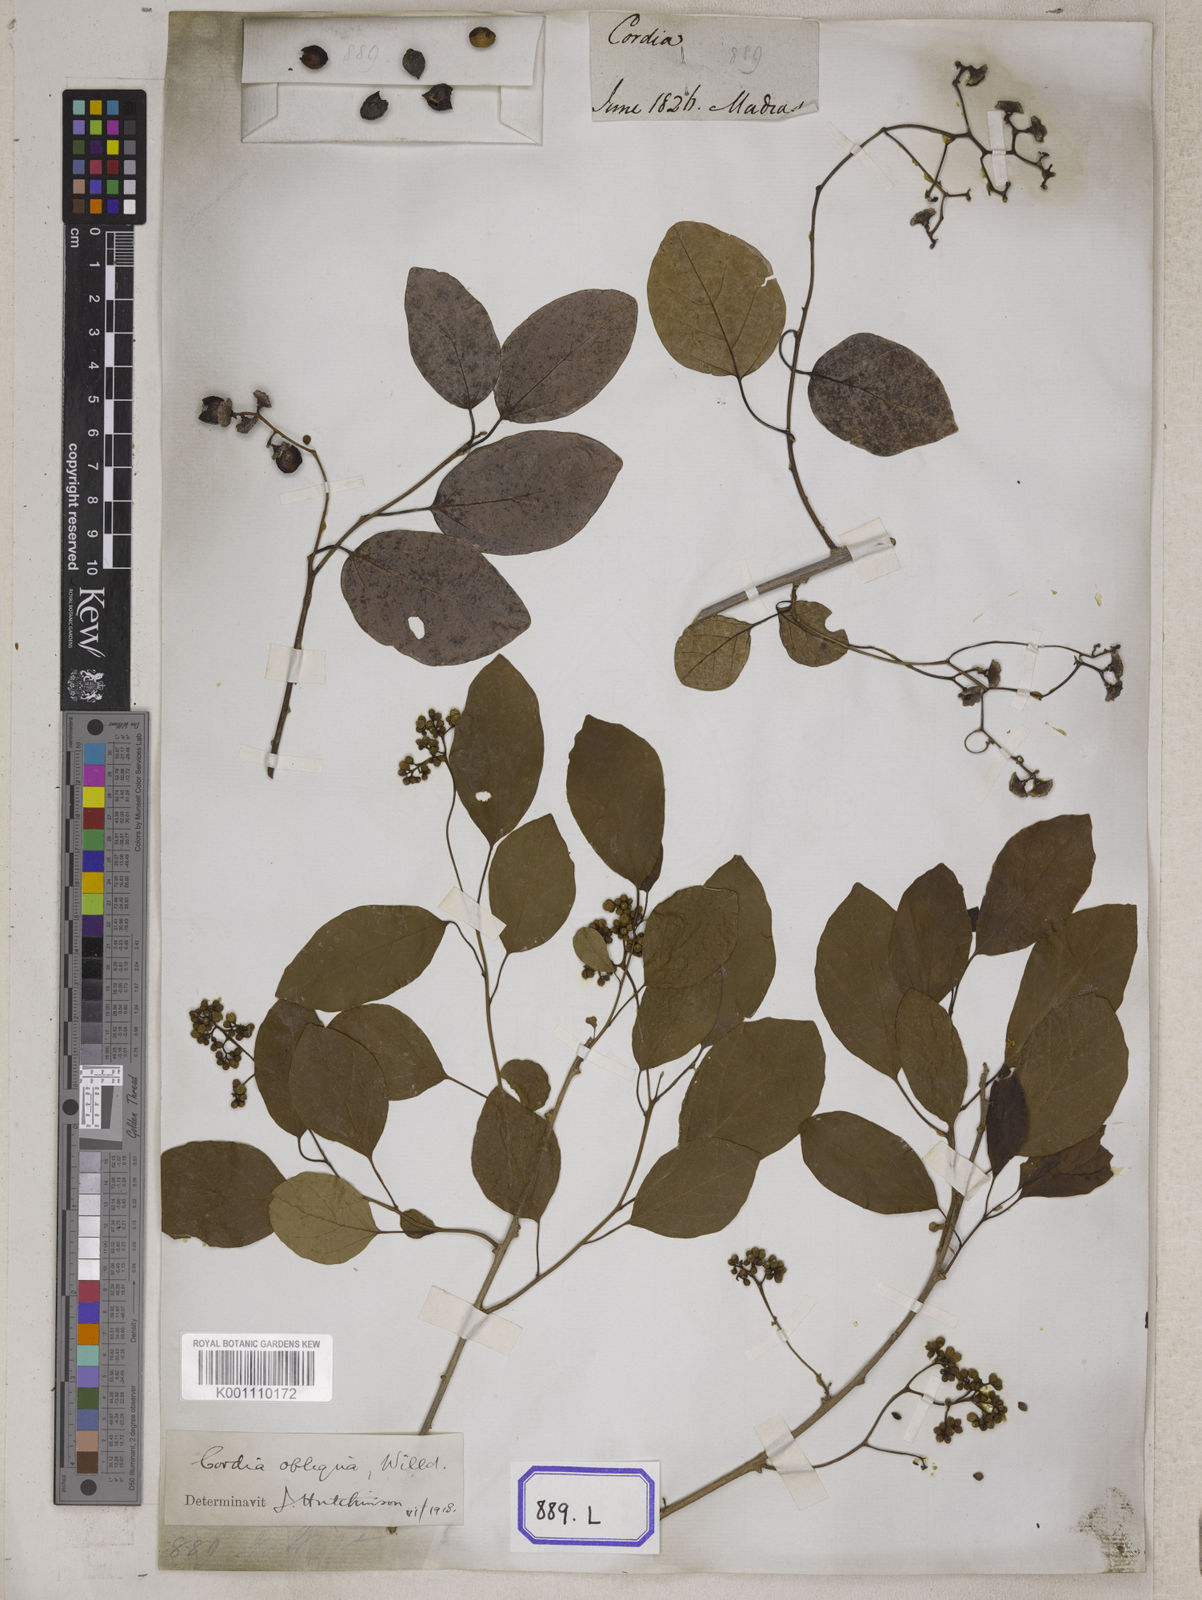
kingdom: Plantae
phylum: Tracheophyta
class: Magnoliopsida
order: Boraginales
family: Cordiaceae
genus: Cordia
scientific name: Cordia myxa
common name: Assyrian plum
